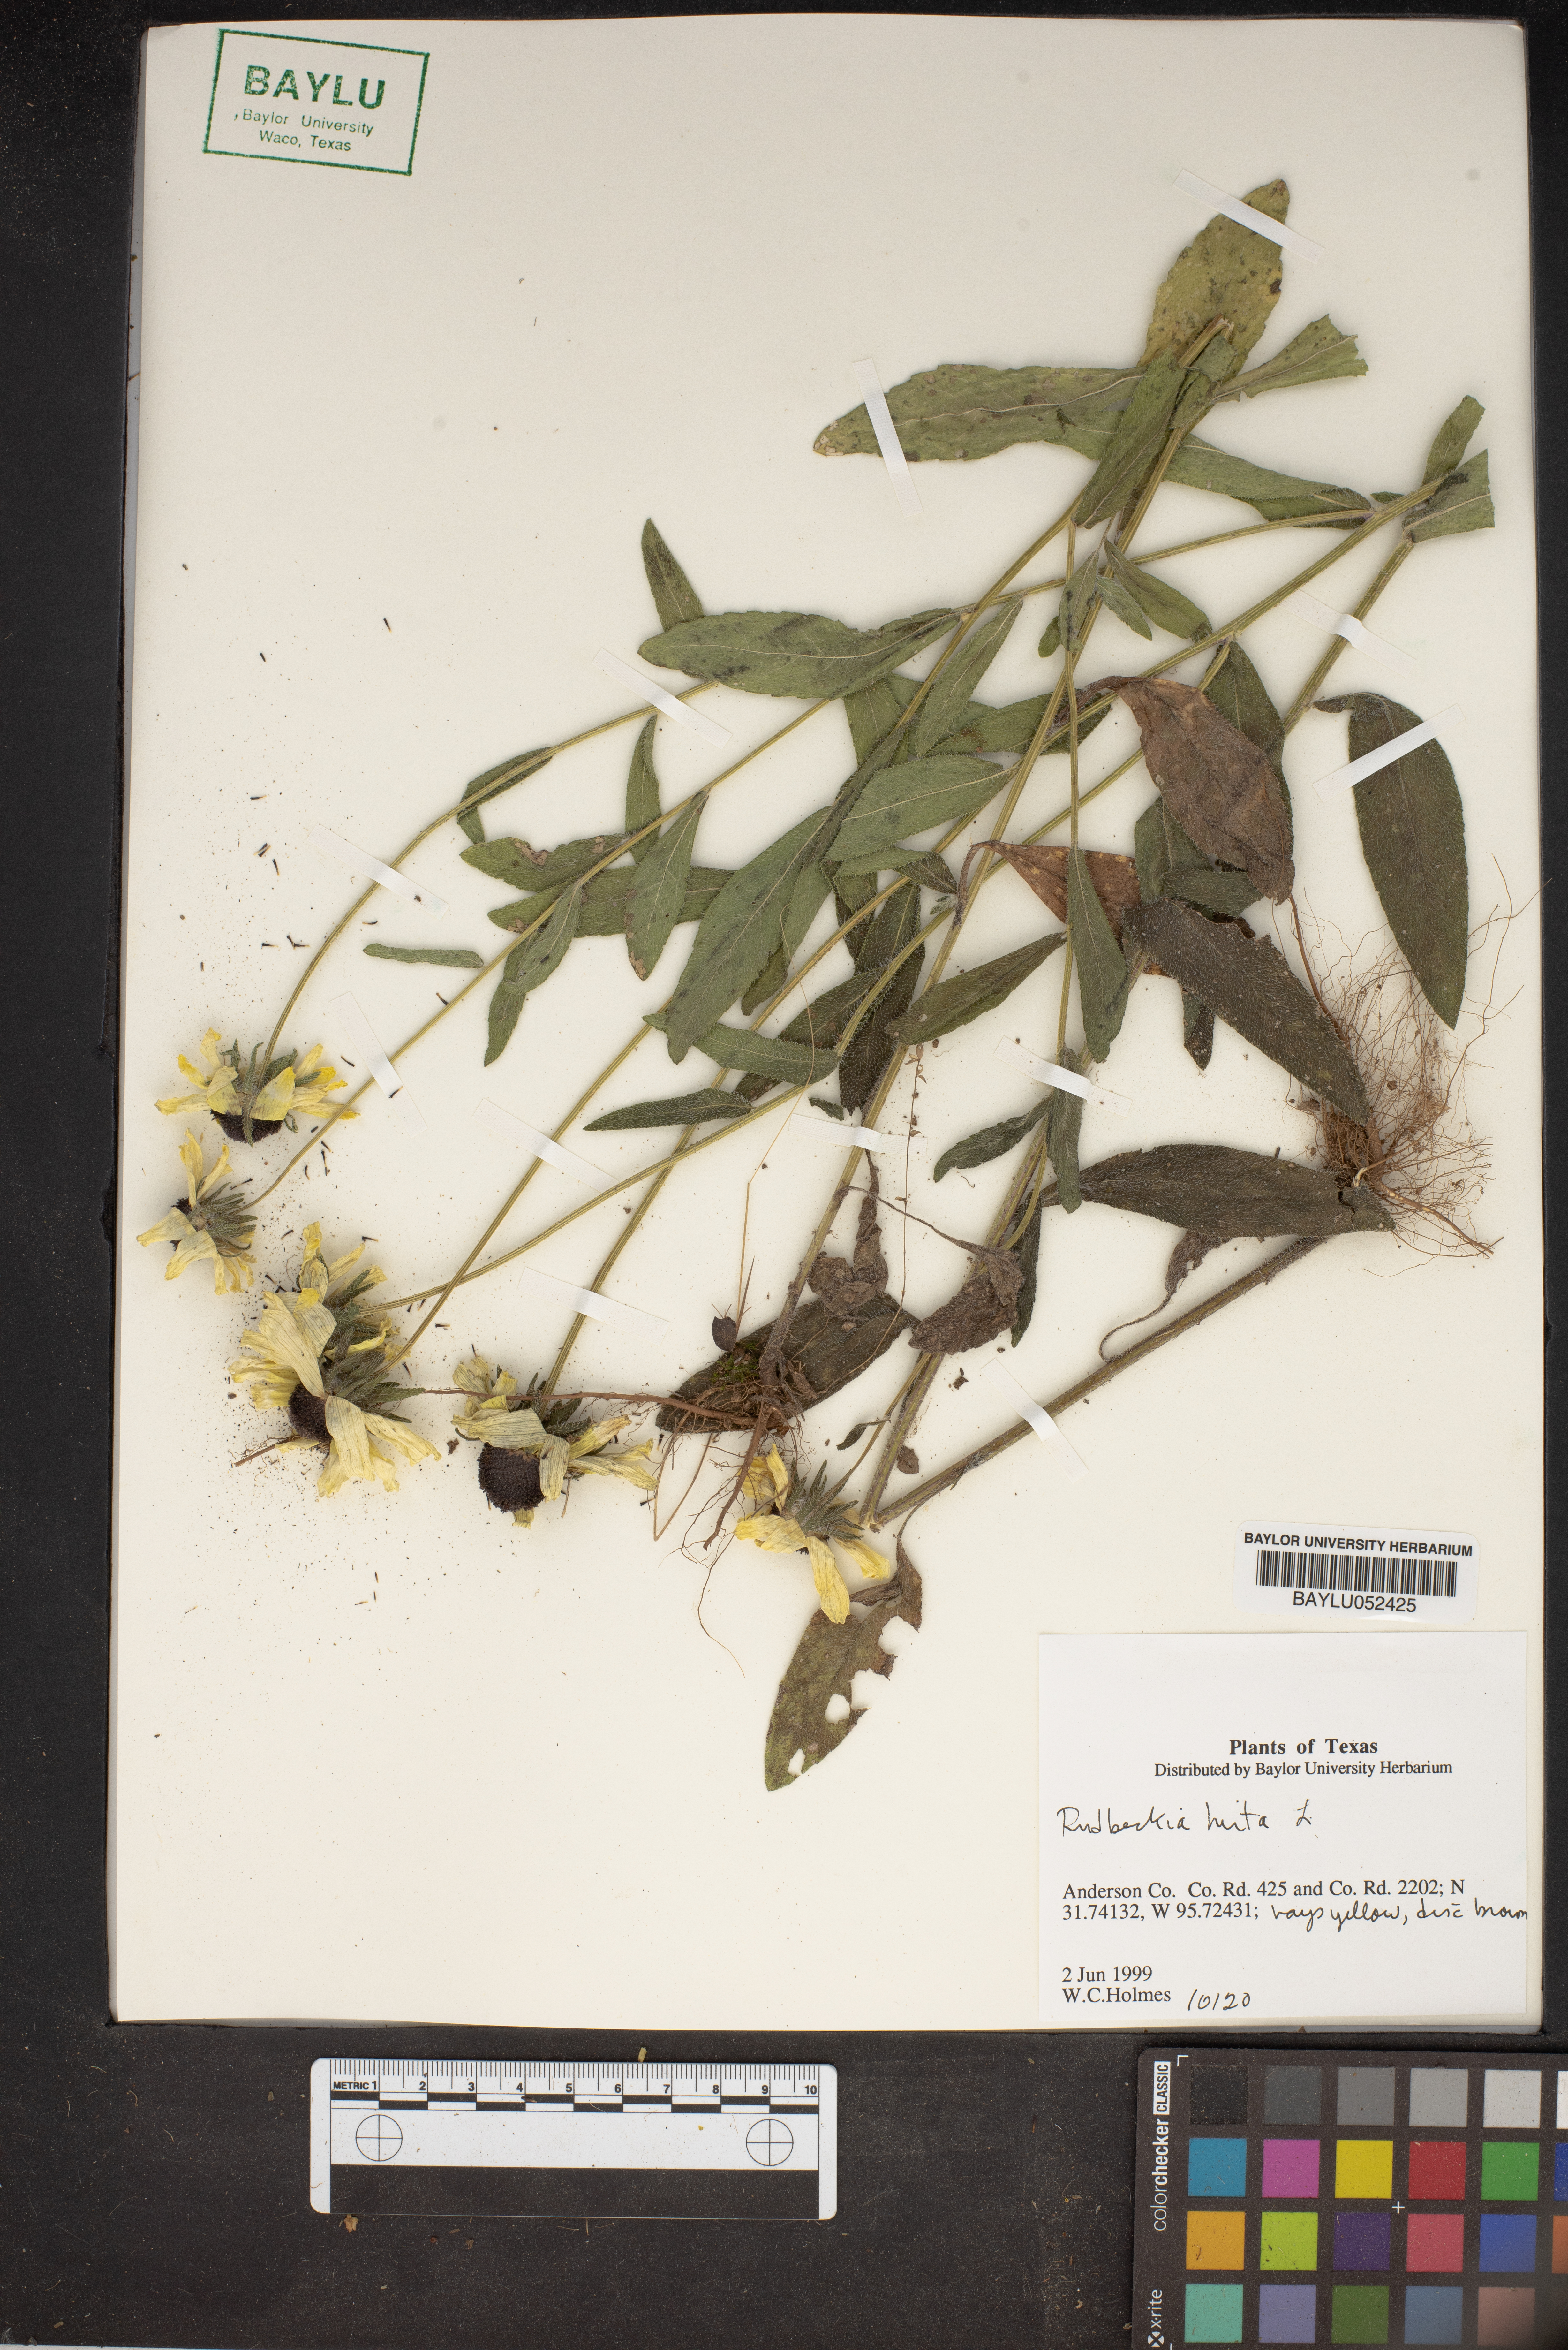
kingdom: Plantae
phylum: Tracheophyta
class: Magnoliopsida
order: Asterales
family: Asteraceae
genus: Rudbeckia
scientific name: Rudbeckia hirta
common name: Black-eyed-susan
